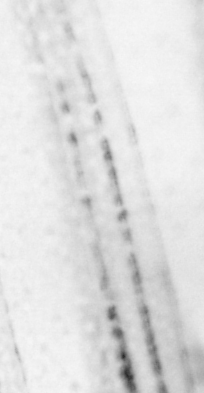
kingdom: Animalia
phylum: Chordata
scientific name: Chordata
